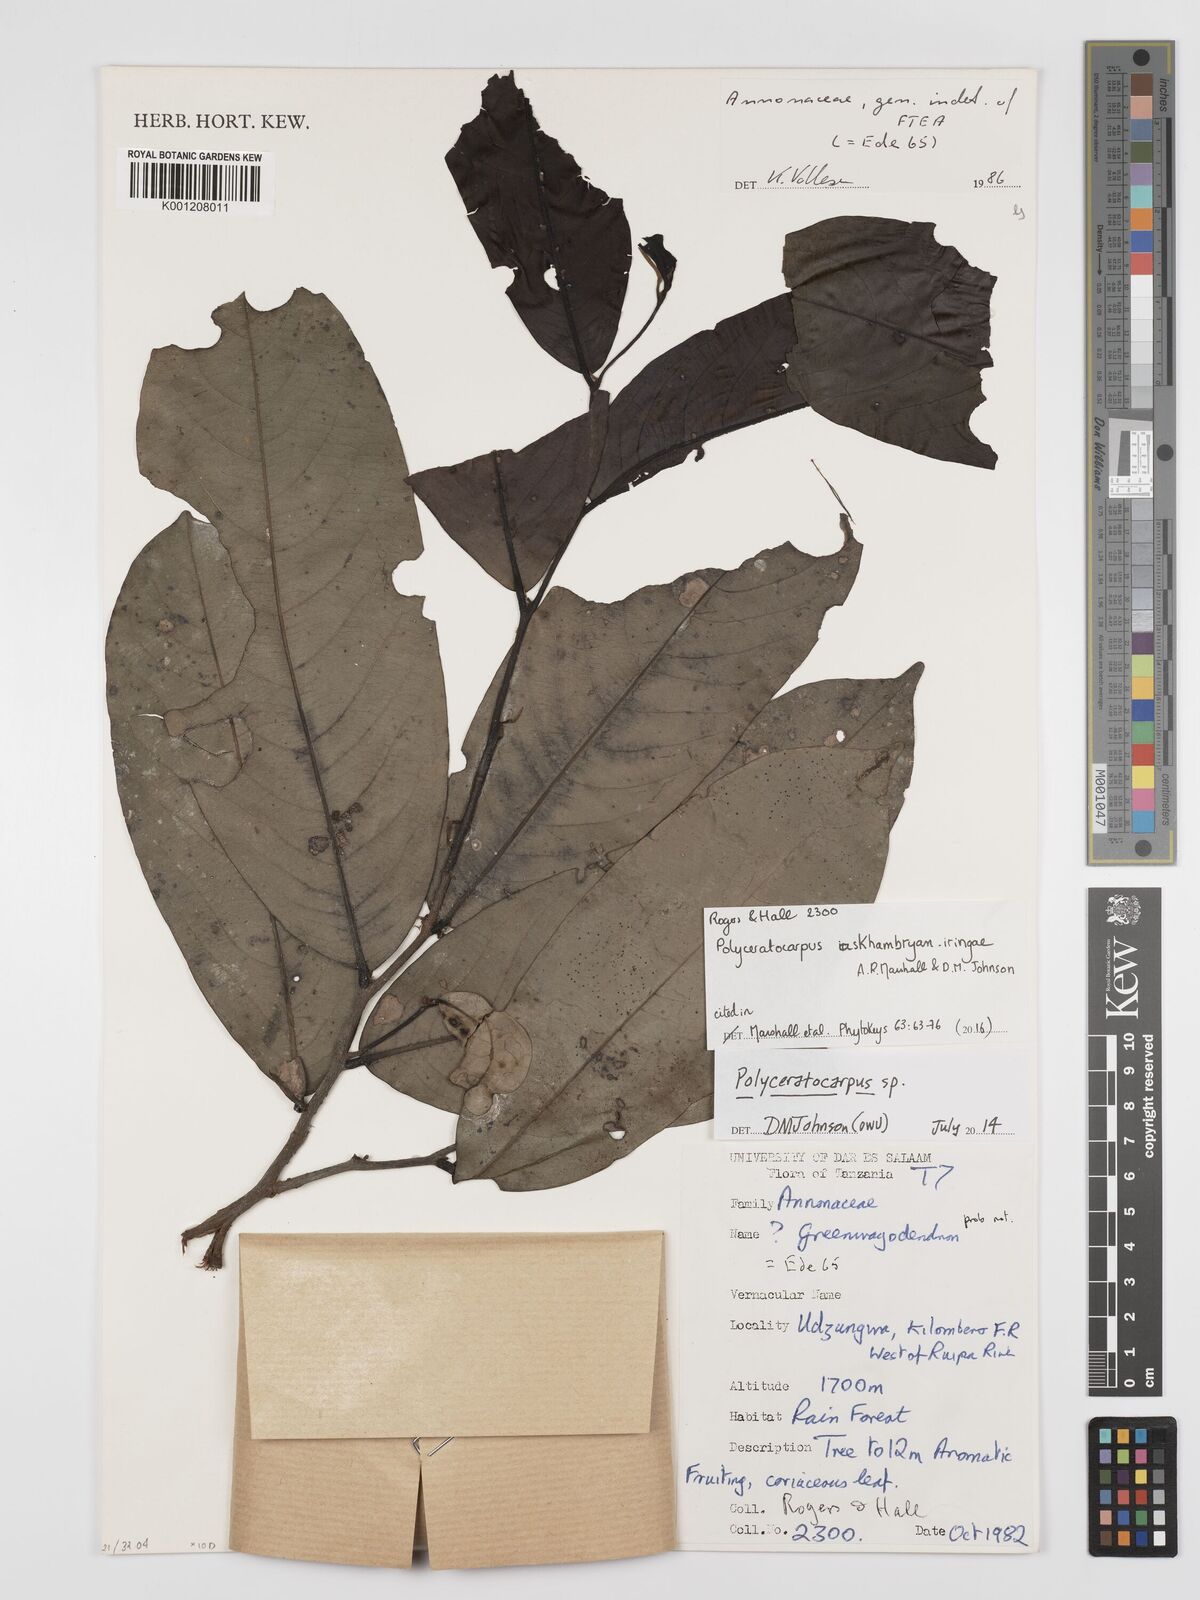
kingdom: Plantae
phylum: Tracheophyta
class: Magnoliopsida
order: Magnoliales
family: Annonaceae
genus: Polyceratocarpus
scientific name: Polyceratocarpus
